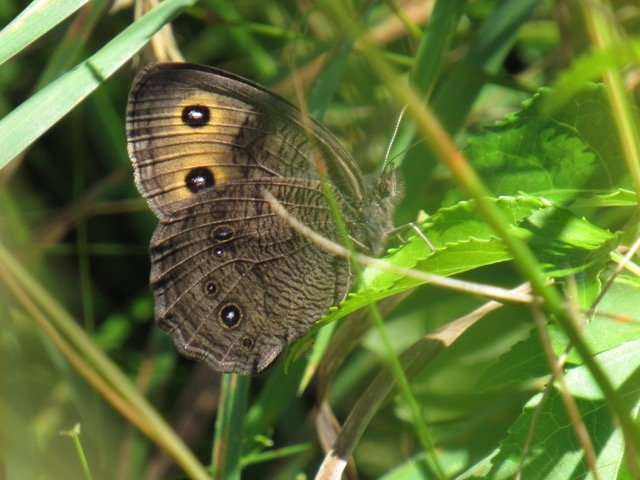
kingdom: Animalia
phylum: Arthropoda
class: Insecta
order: Lepidoptera
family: Nymphalidae
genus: Cercyonis
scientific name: Cercyonis pegala
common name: Common Wood-Nymph
